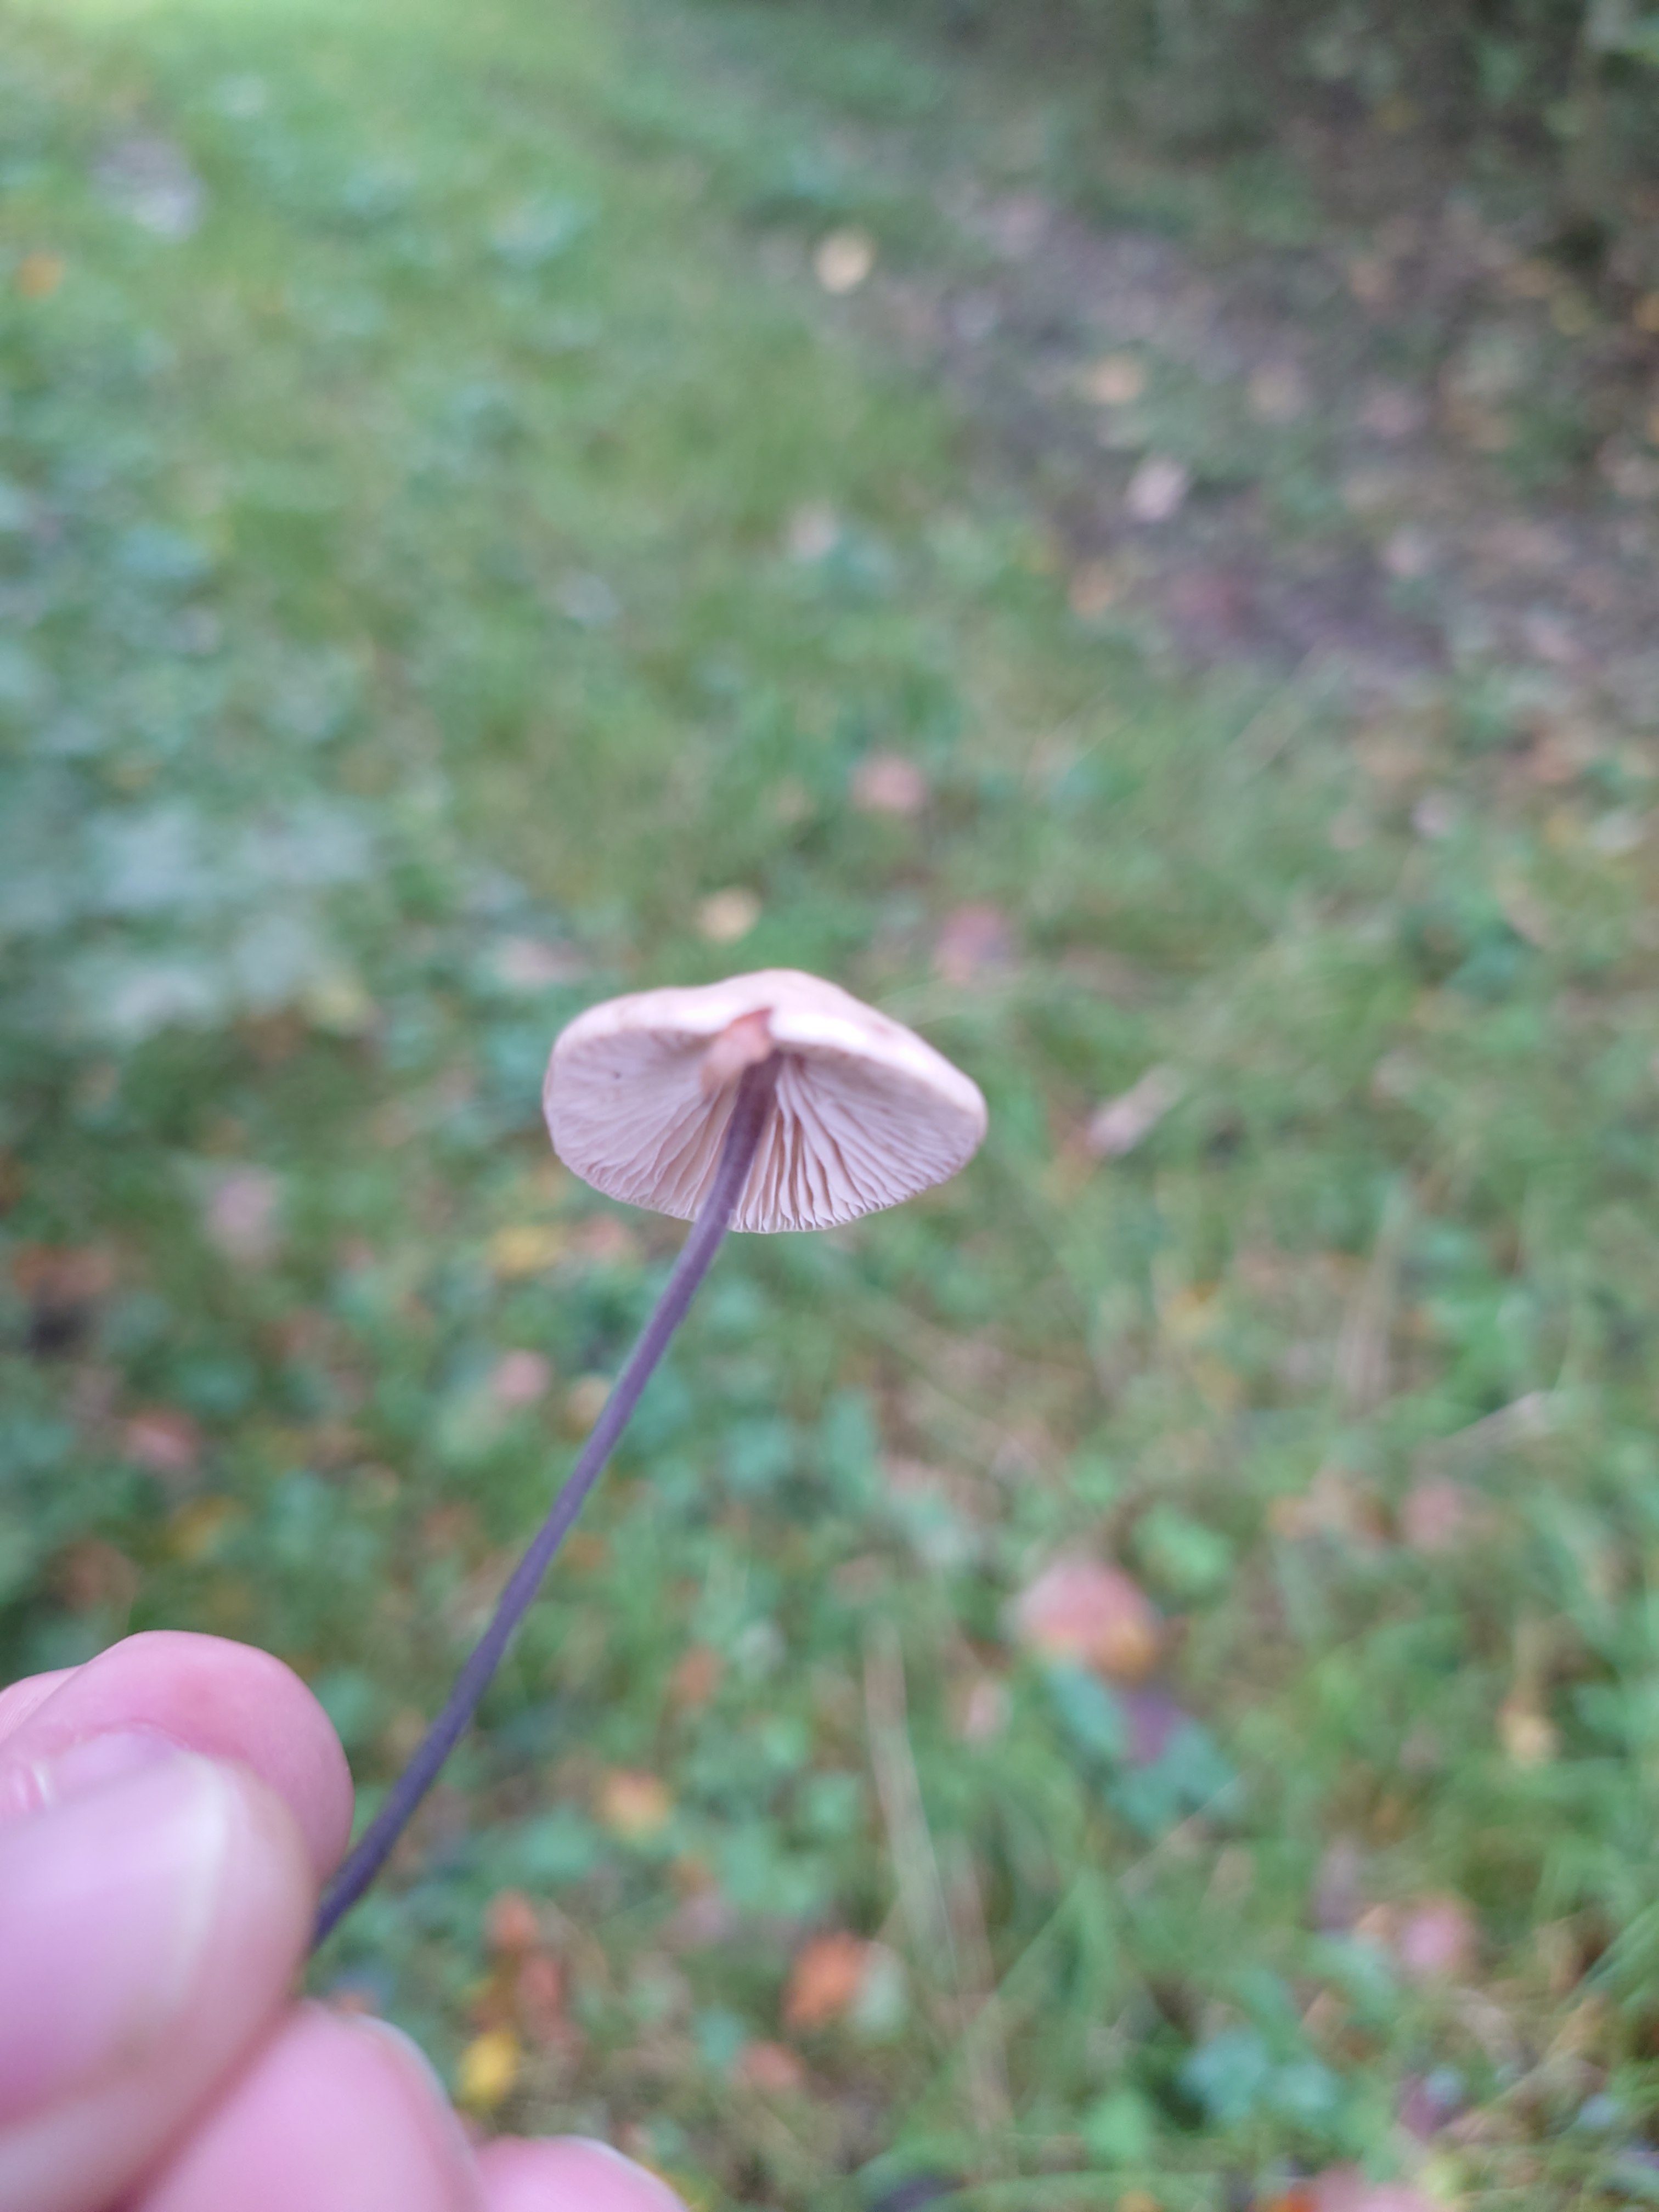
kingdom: Fungi
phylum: Basidiomycota
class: Agaricomycetes
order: Agaricales
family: Omphalotaceae
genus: Mycetinis
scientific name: Mycetinis alliaceus
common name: stor løghat
